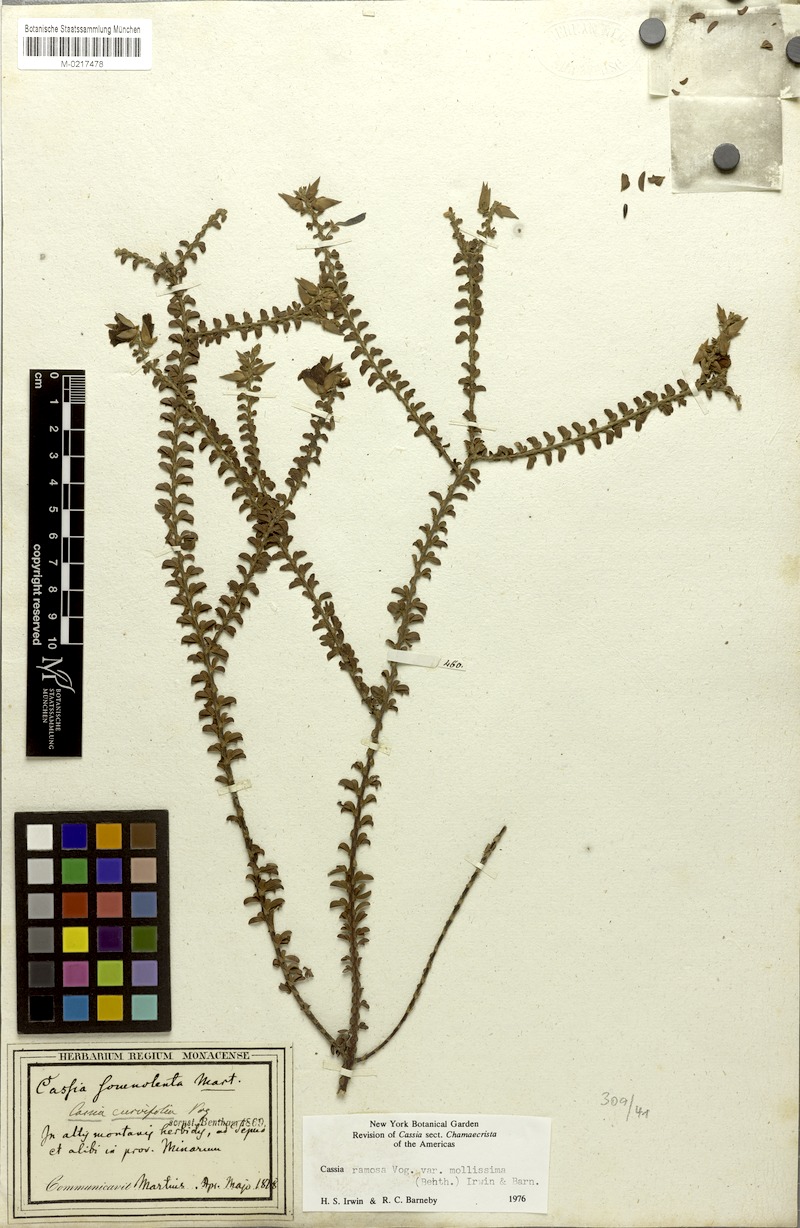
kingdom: Plantae
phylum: Tracheophyta
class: Magnoliopsida
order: Fabales
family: Fabaceae
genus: Chamaecrista
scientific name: Chamaecrista ramosa
